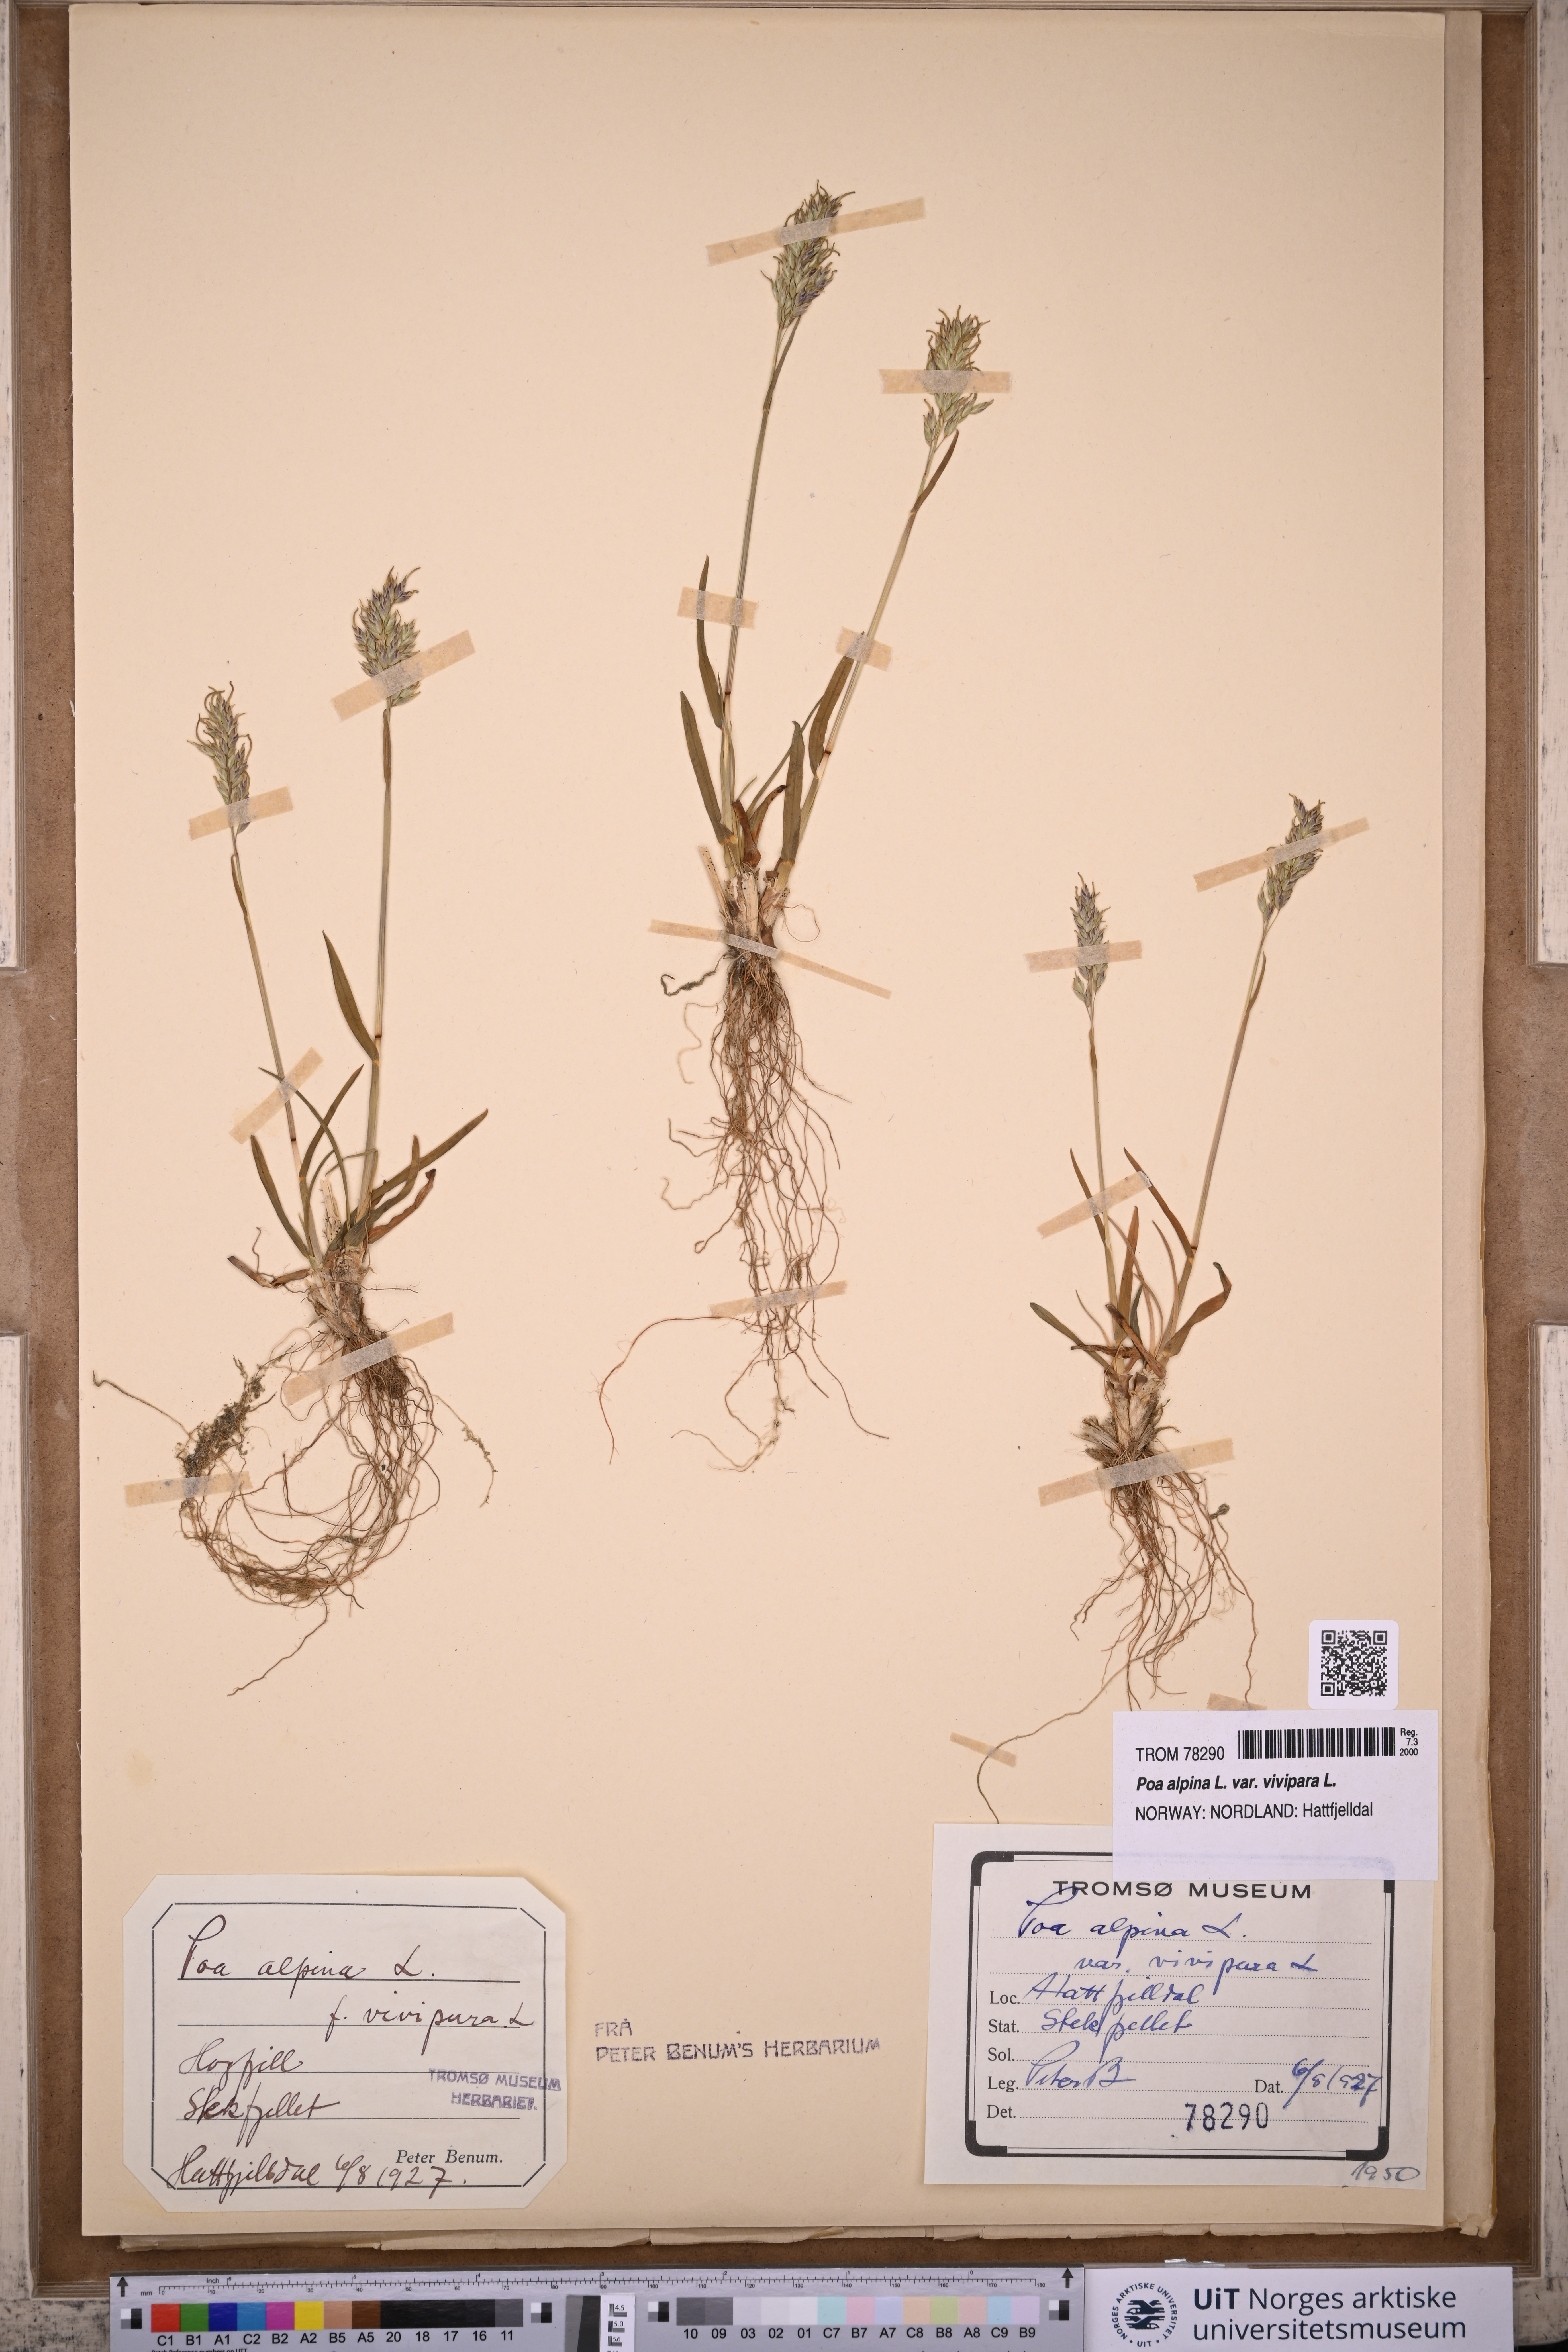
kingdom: Plantae
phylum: Tracheophyta
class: Liliopsida
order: Poales
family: Poaceae
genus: Poa
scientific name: Poa alpina
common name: Alpine bluegrass
